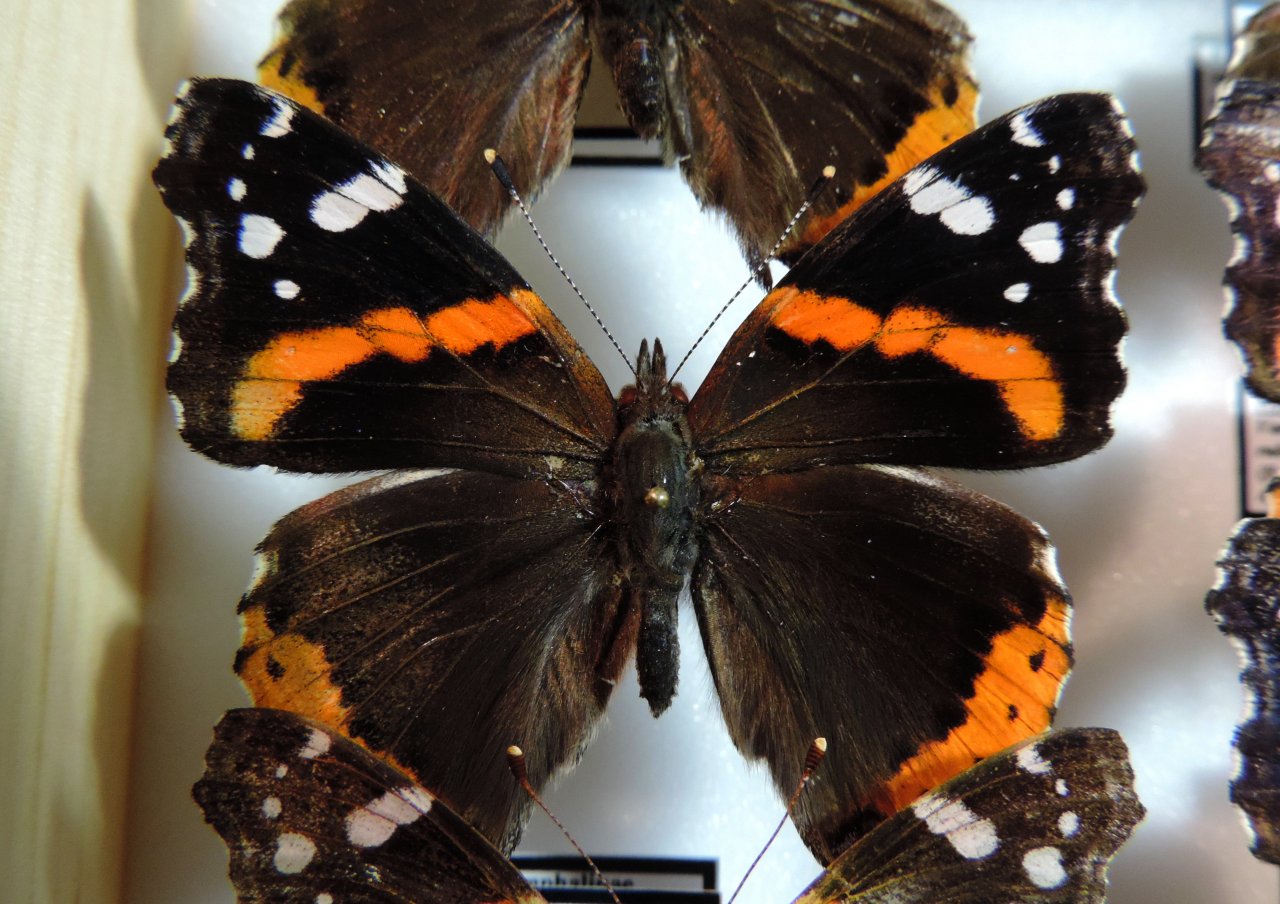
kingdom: Animalia
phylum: Arthropoda
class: Insecta
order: Lepidoptera
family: Nymphalidae
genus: Vanessa
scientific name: Vanessa atalanta
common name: Red Admiral
